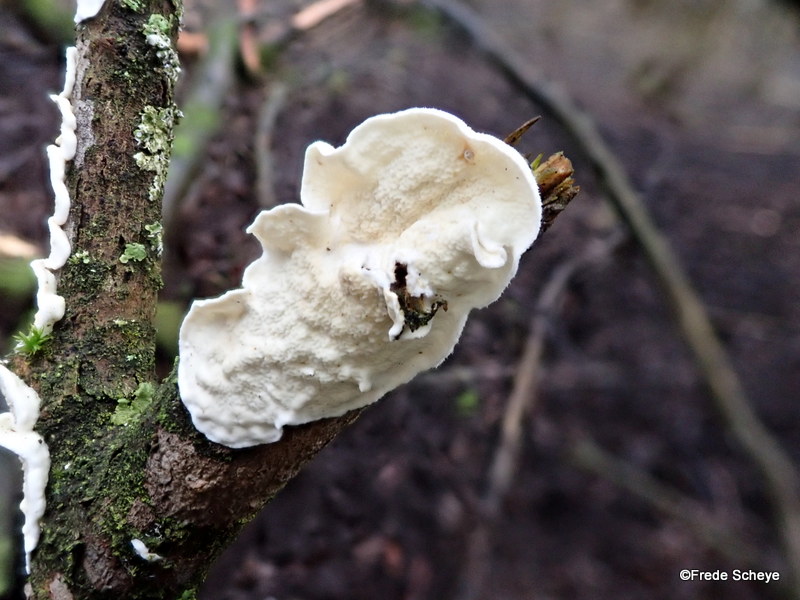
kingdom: Fungi
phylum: Basidiomycota
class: Agaricomycetes
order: Polyporales
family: Irpicaceae
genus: Byssomerulius
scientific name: Byssomerulius corium
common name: læder-åresvamp
